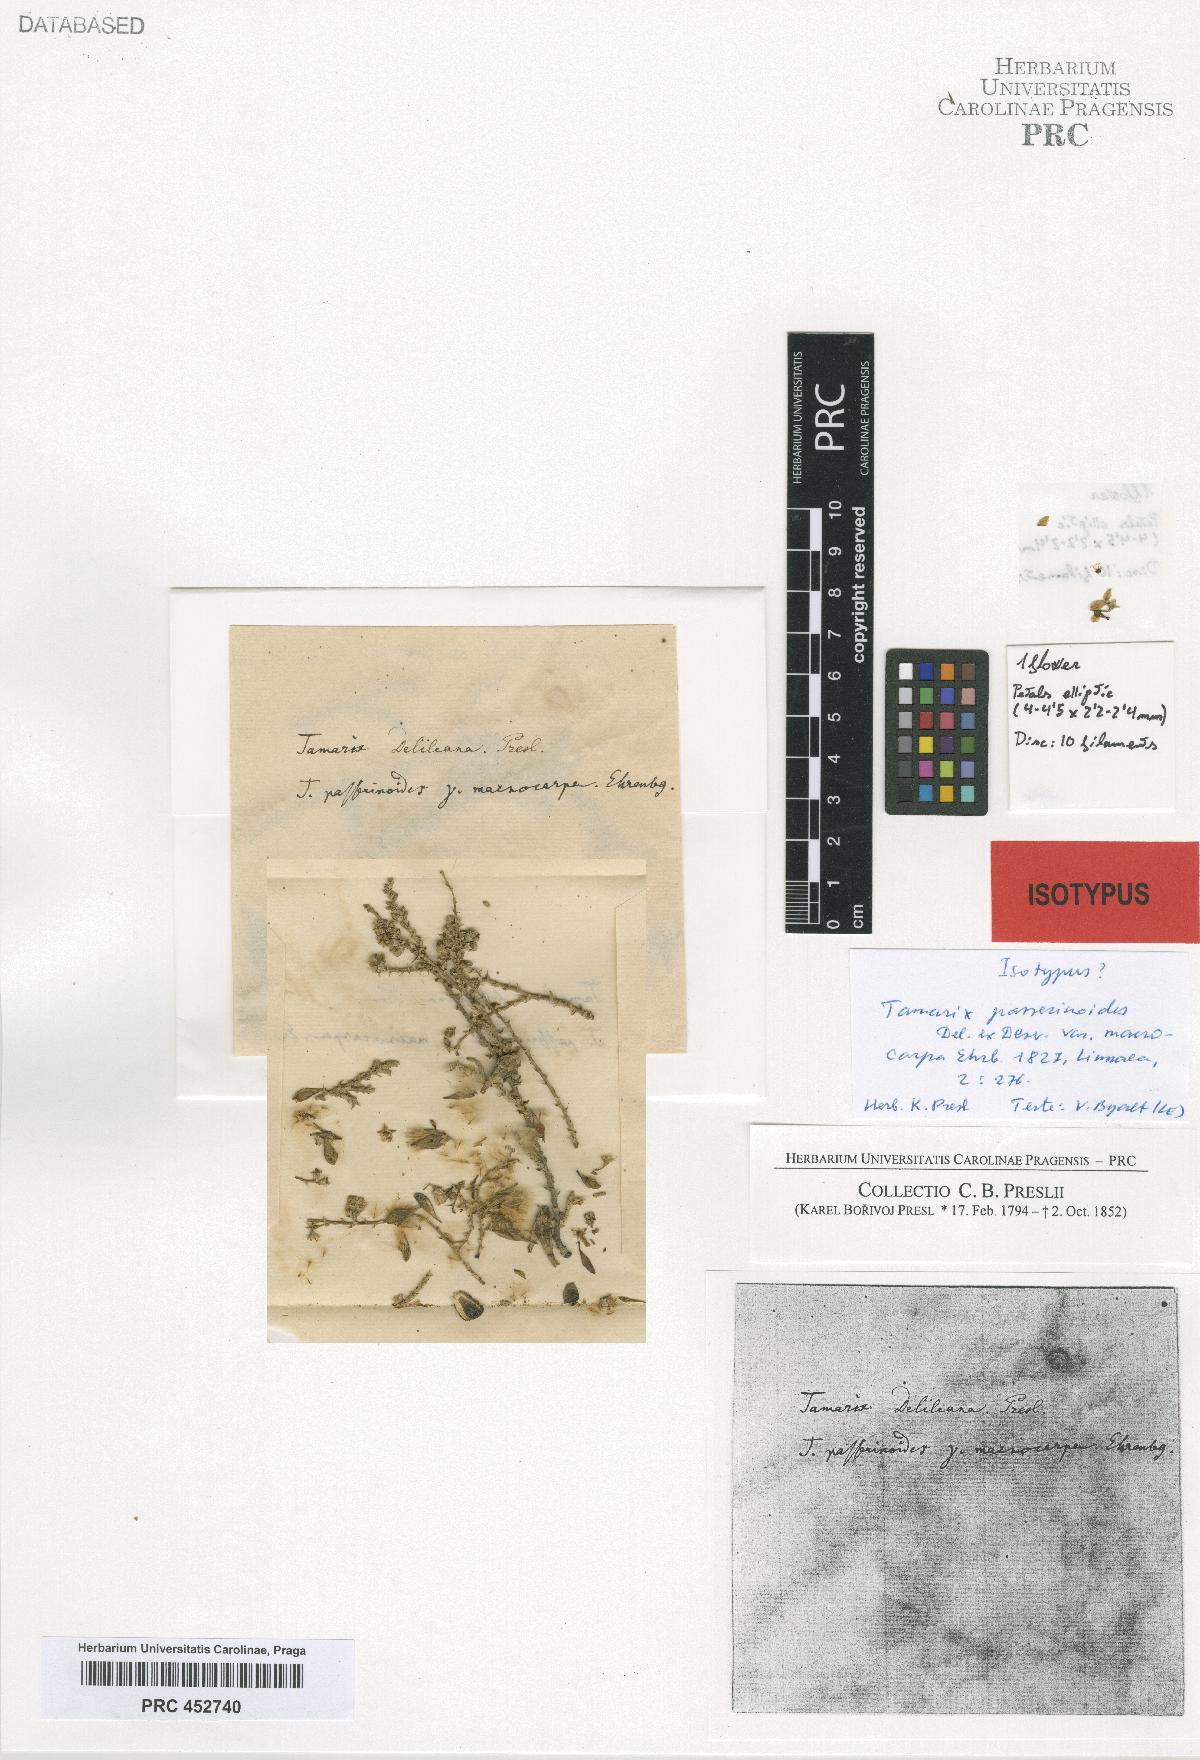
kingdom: Plantae
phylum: Tracheophyta
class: Magnoliopsida
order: Caryophyllales
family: Tamaricaceae
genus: Tamarix
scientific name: Tamarix macrocarpa
